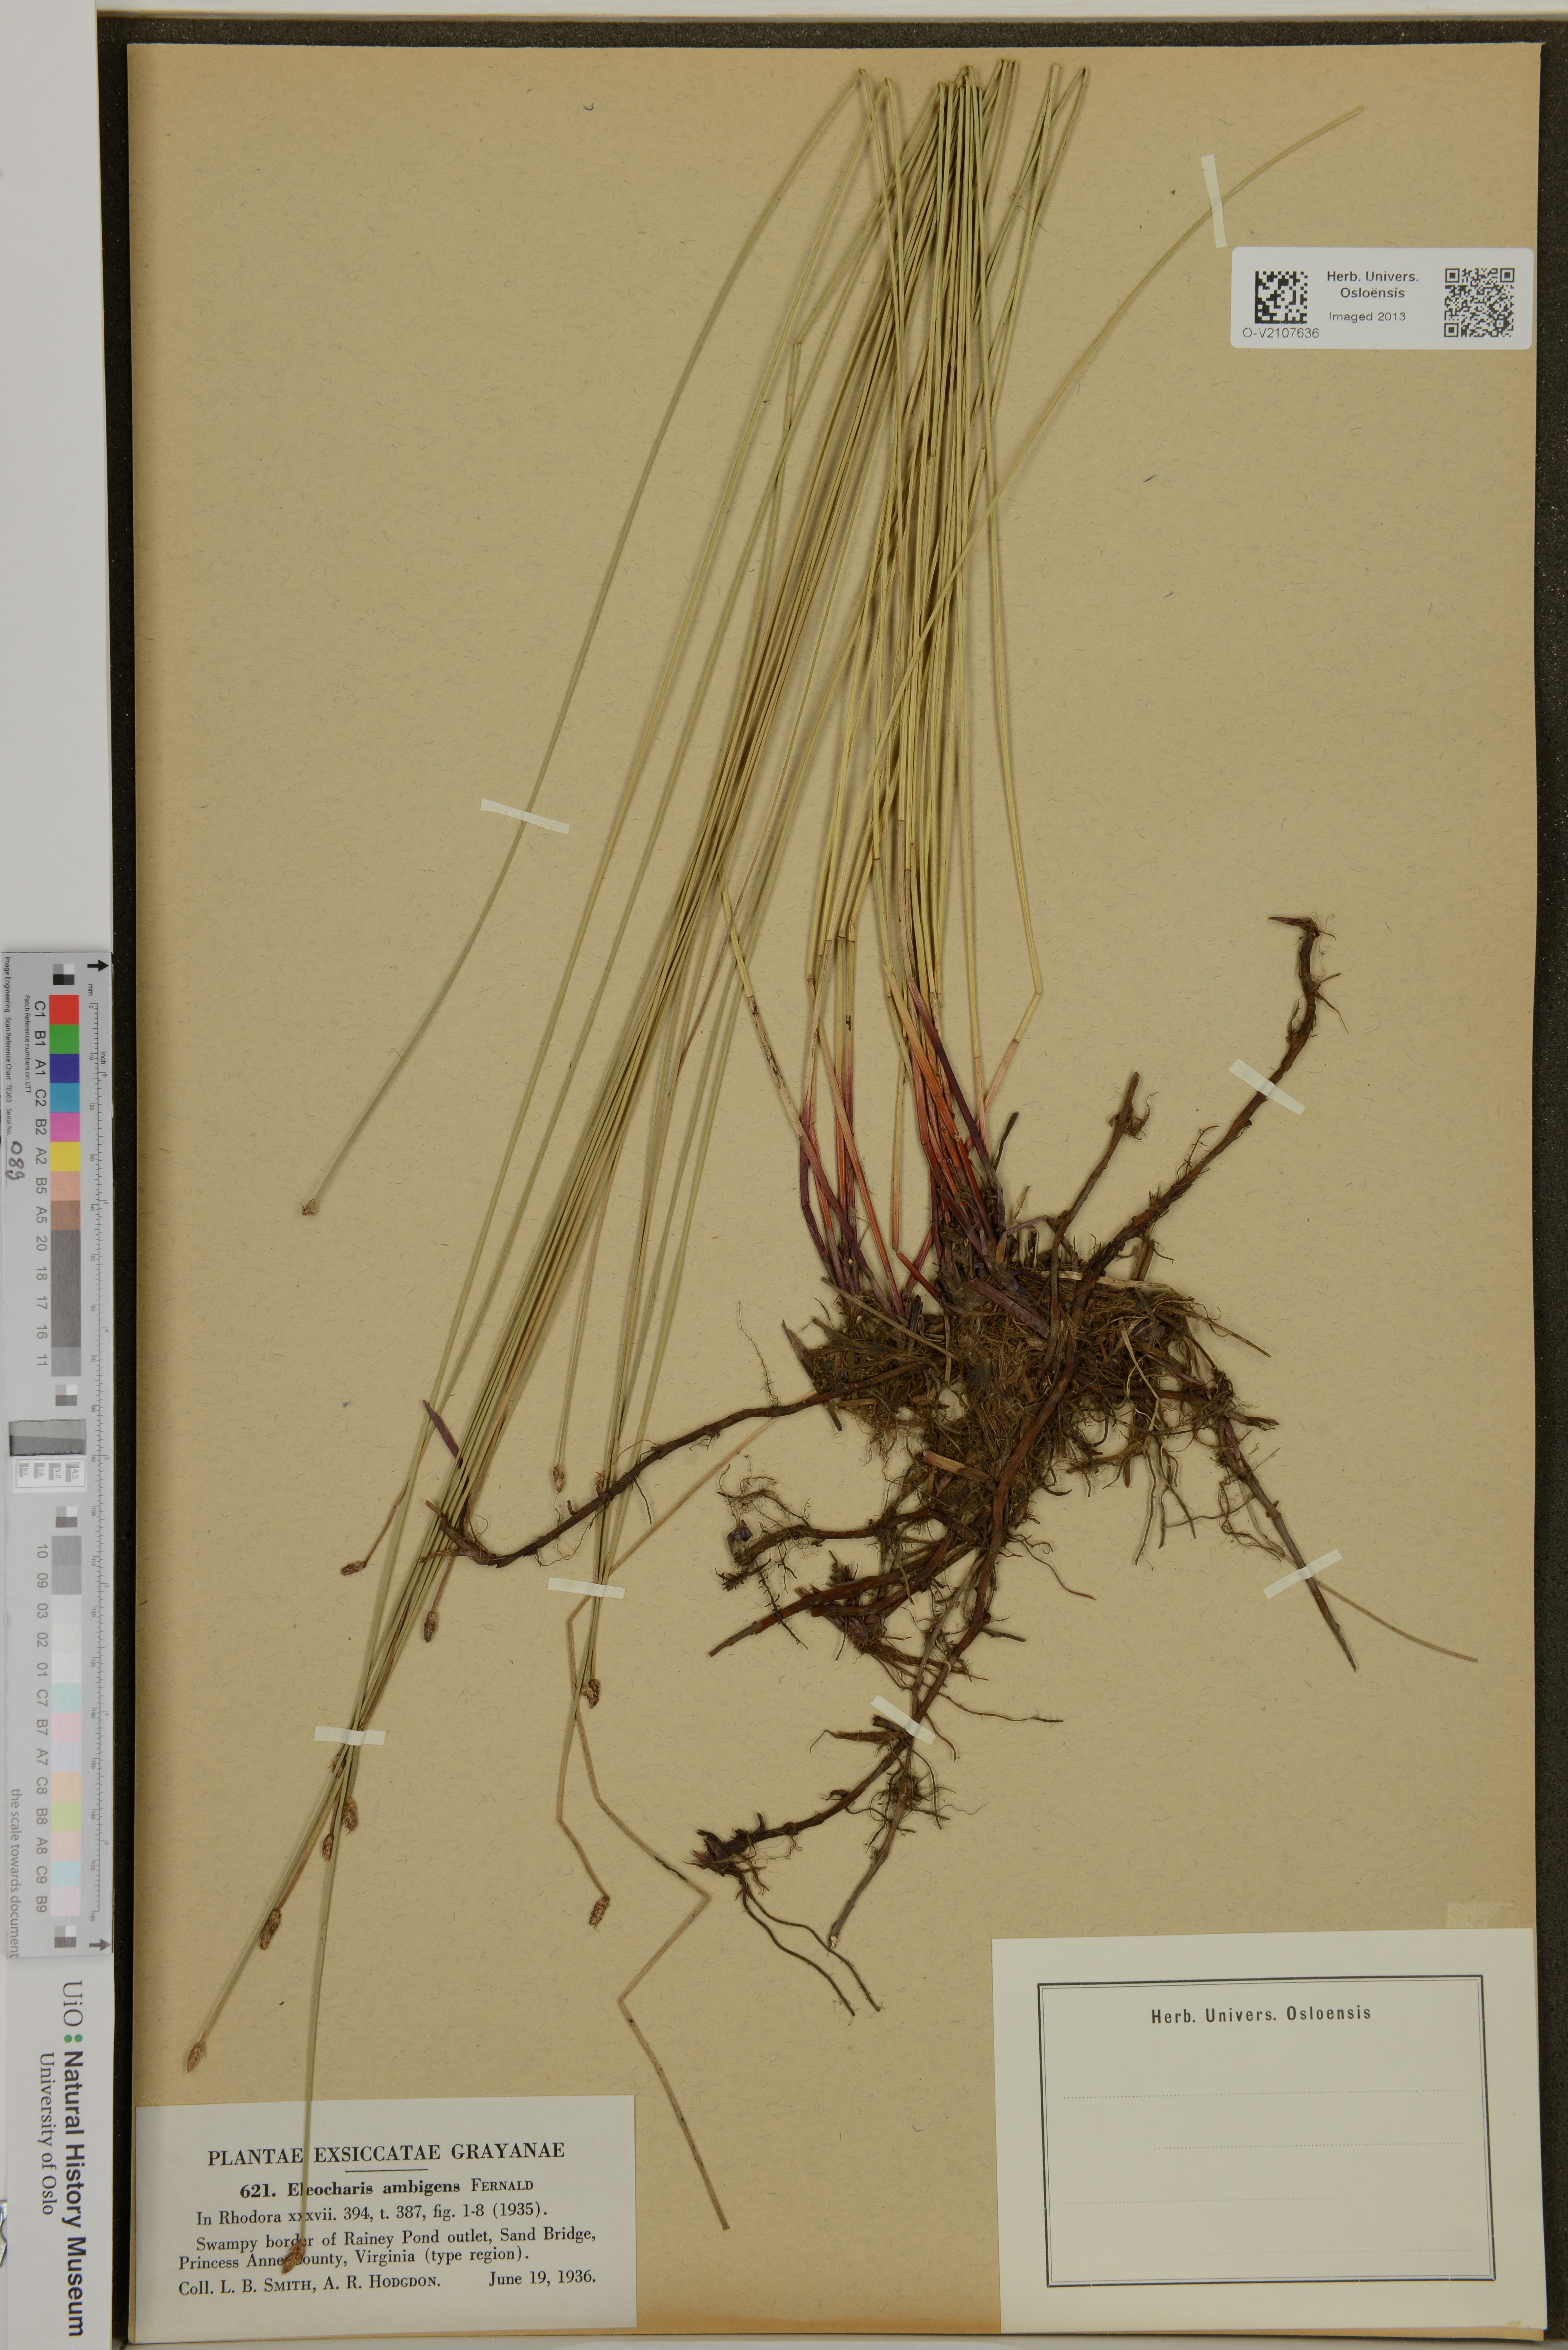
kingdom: Plantae
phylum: Tracheophyta
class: Liliopsida
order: Poales
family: Cyperaceae
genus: Eleocharis
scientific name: Eleocharis fallax
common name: Creeping spikerush
